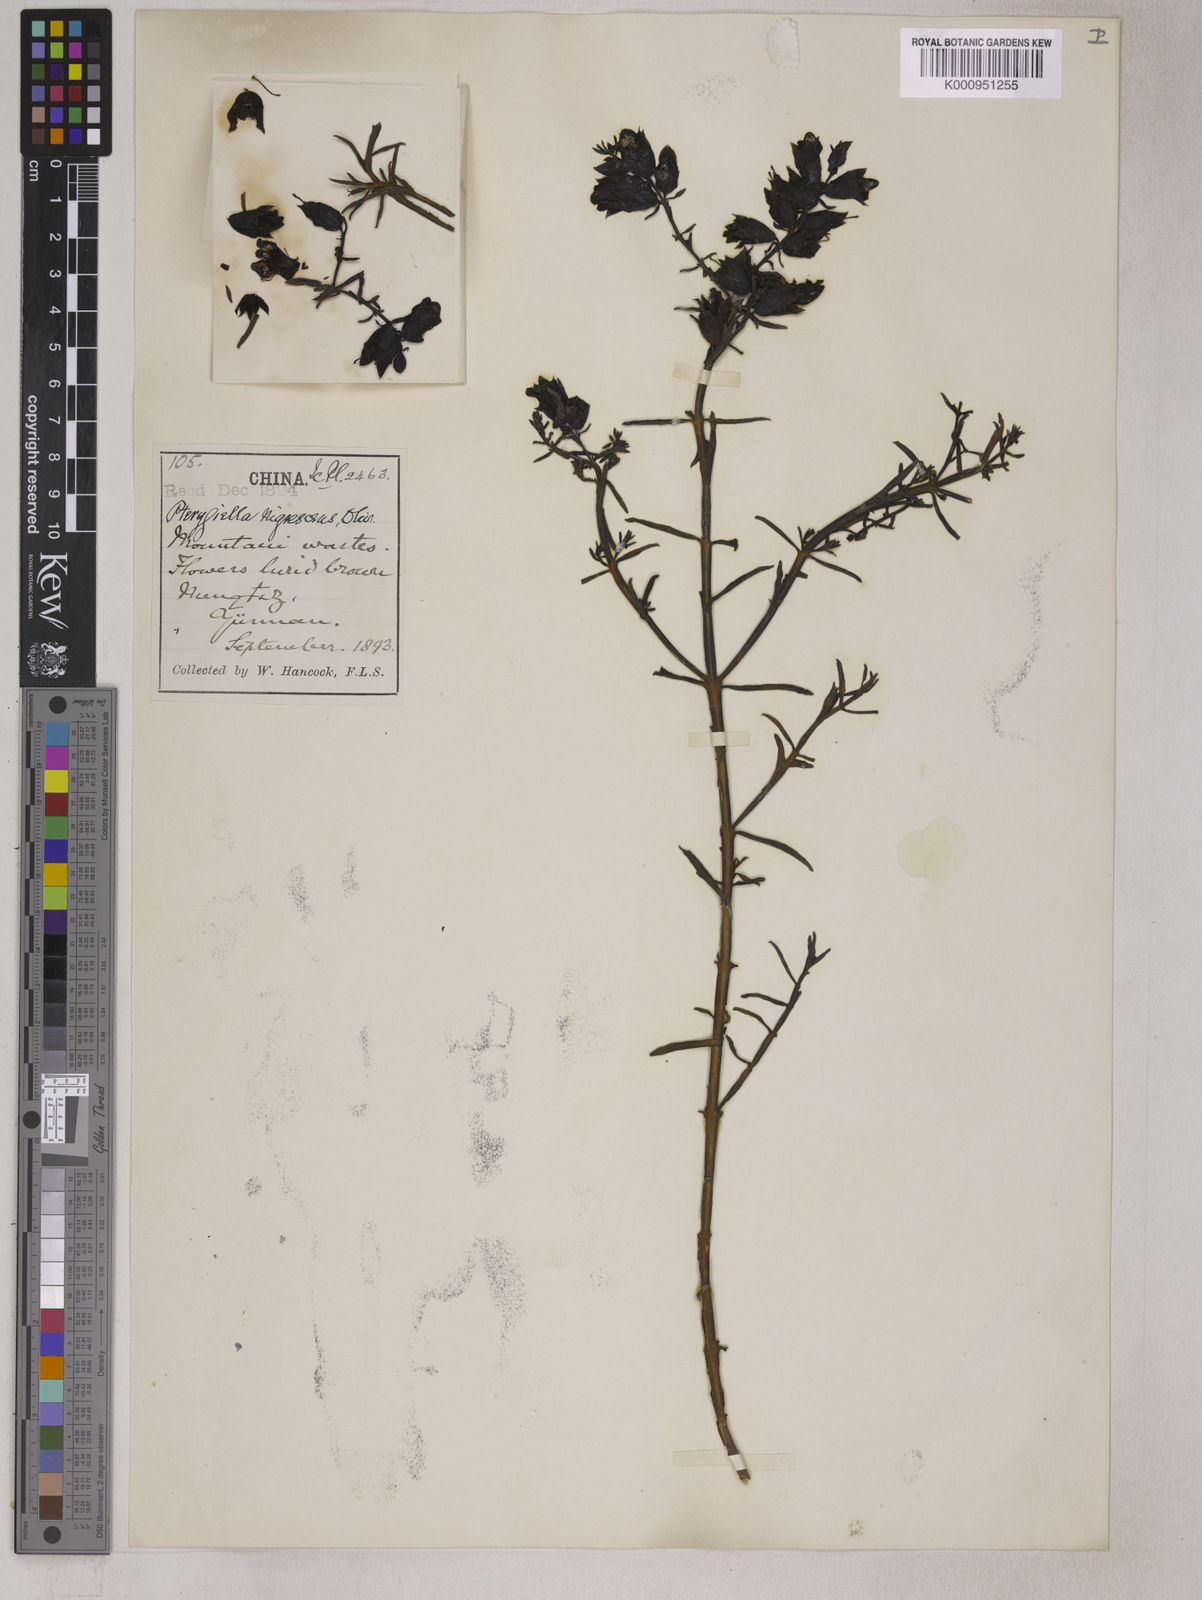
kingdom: Plantae
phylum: Tracheophyta
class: Magnoliopsida
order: Lamiales
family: Orobanchaceae
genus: Pterygiella
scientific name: Pterygiella nigrescens
